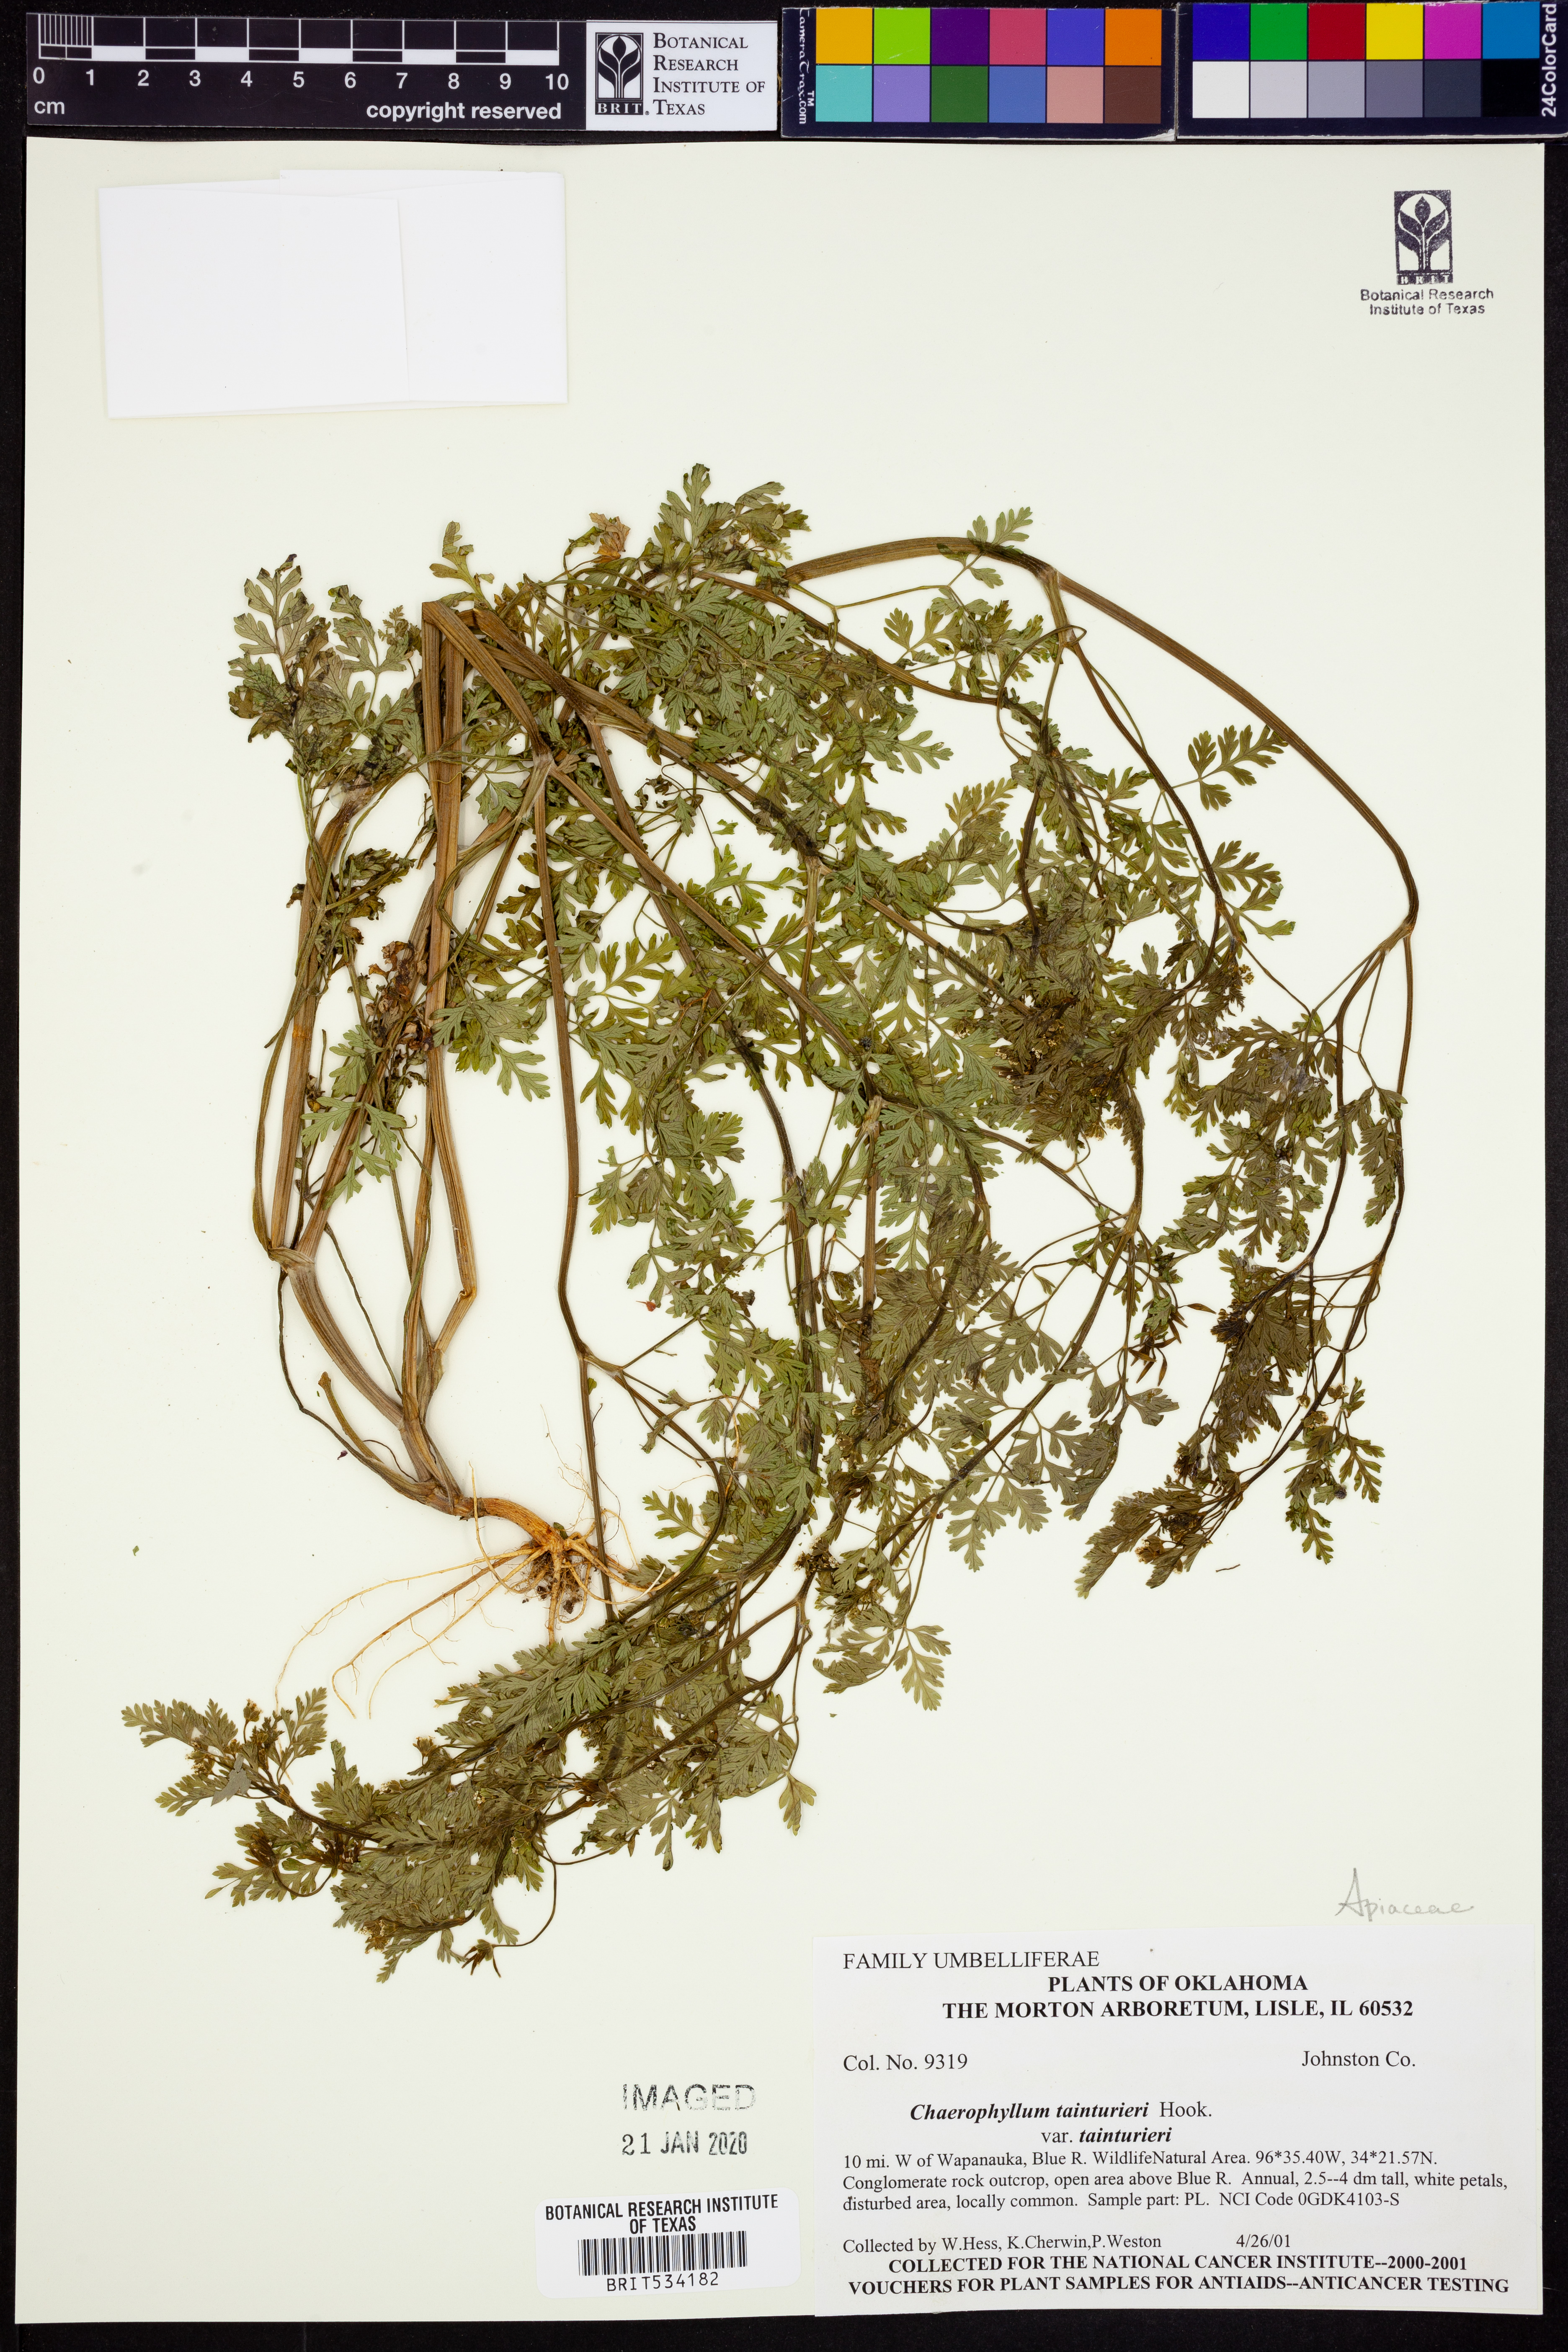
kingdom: Plantae
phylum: Tracheophyta
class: Magnoliopsida
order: Apiales
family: Apiaceae
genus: Chaerophyllum
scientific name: Chaerophyllum tainturieri
